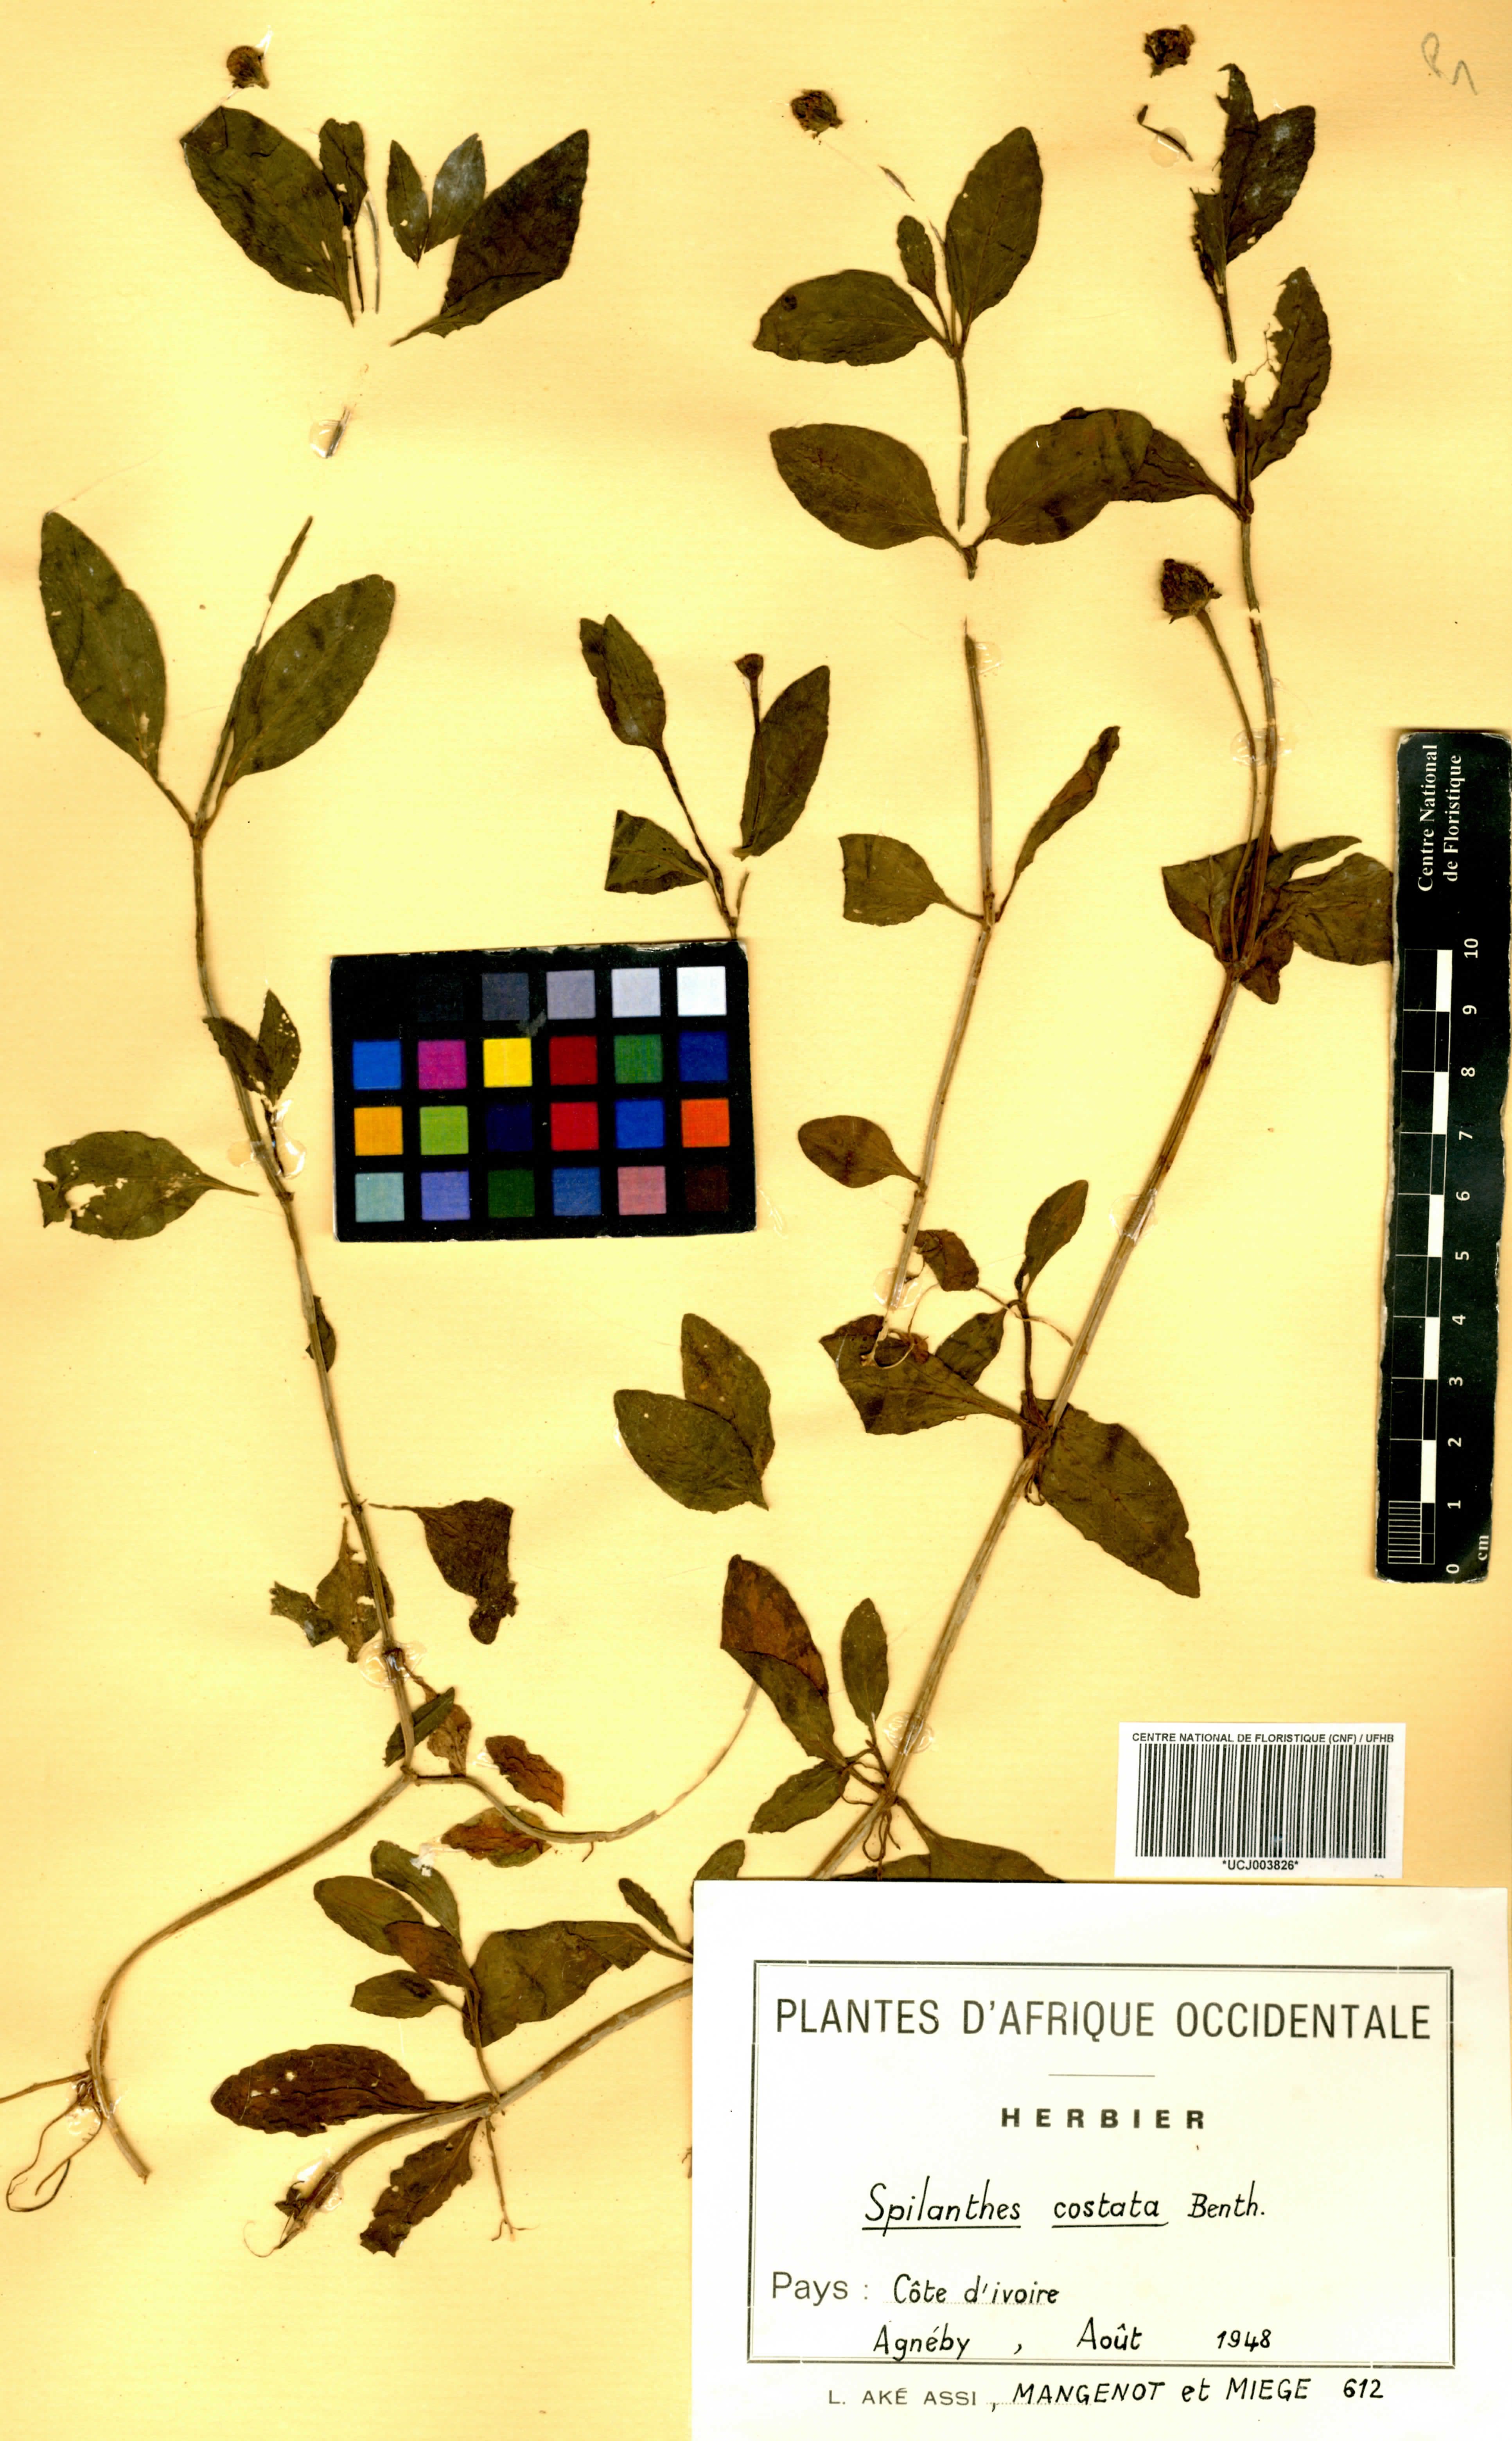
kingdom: Plantae
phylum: Tracheophyta
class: Magnoliopsida
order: Asterales
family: Asteraceae
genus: Spilanthes
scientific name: Spilanthes costata
